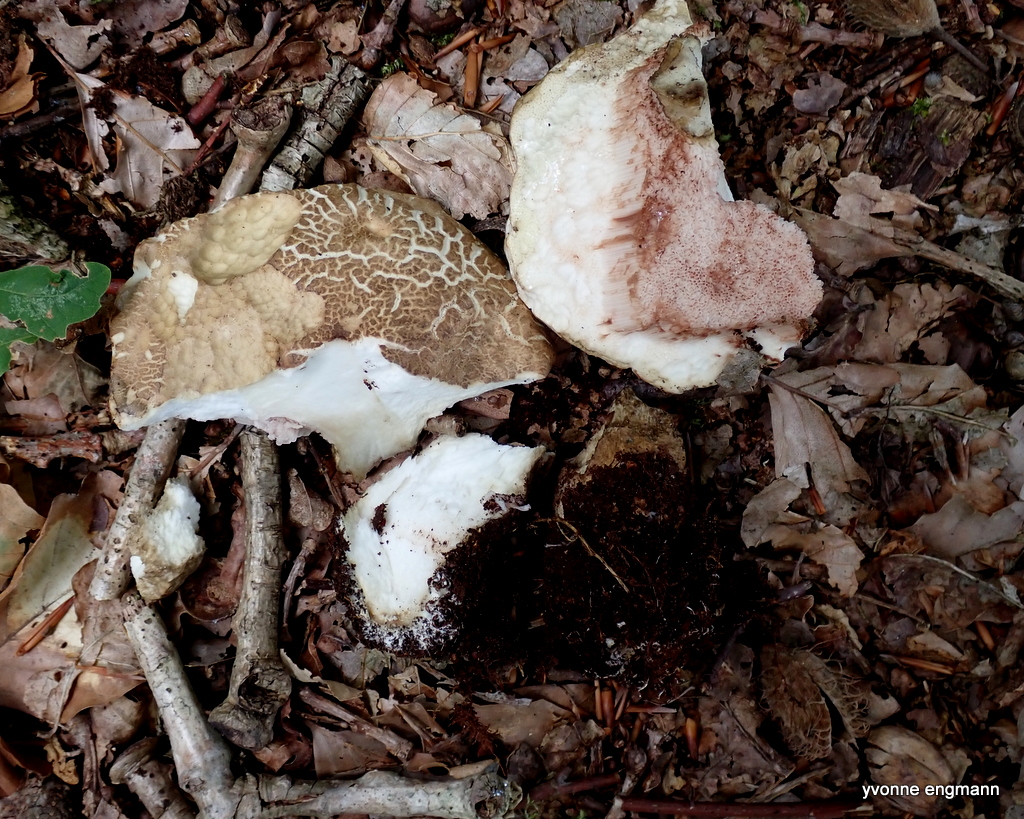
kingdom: Fungi
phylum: Basidiomycota
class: Agaricomycetes
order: Boletales
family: Boletaceae
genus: Tylopilus
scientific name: Tylopilus felleus
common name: galderørhat
